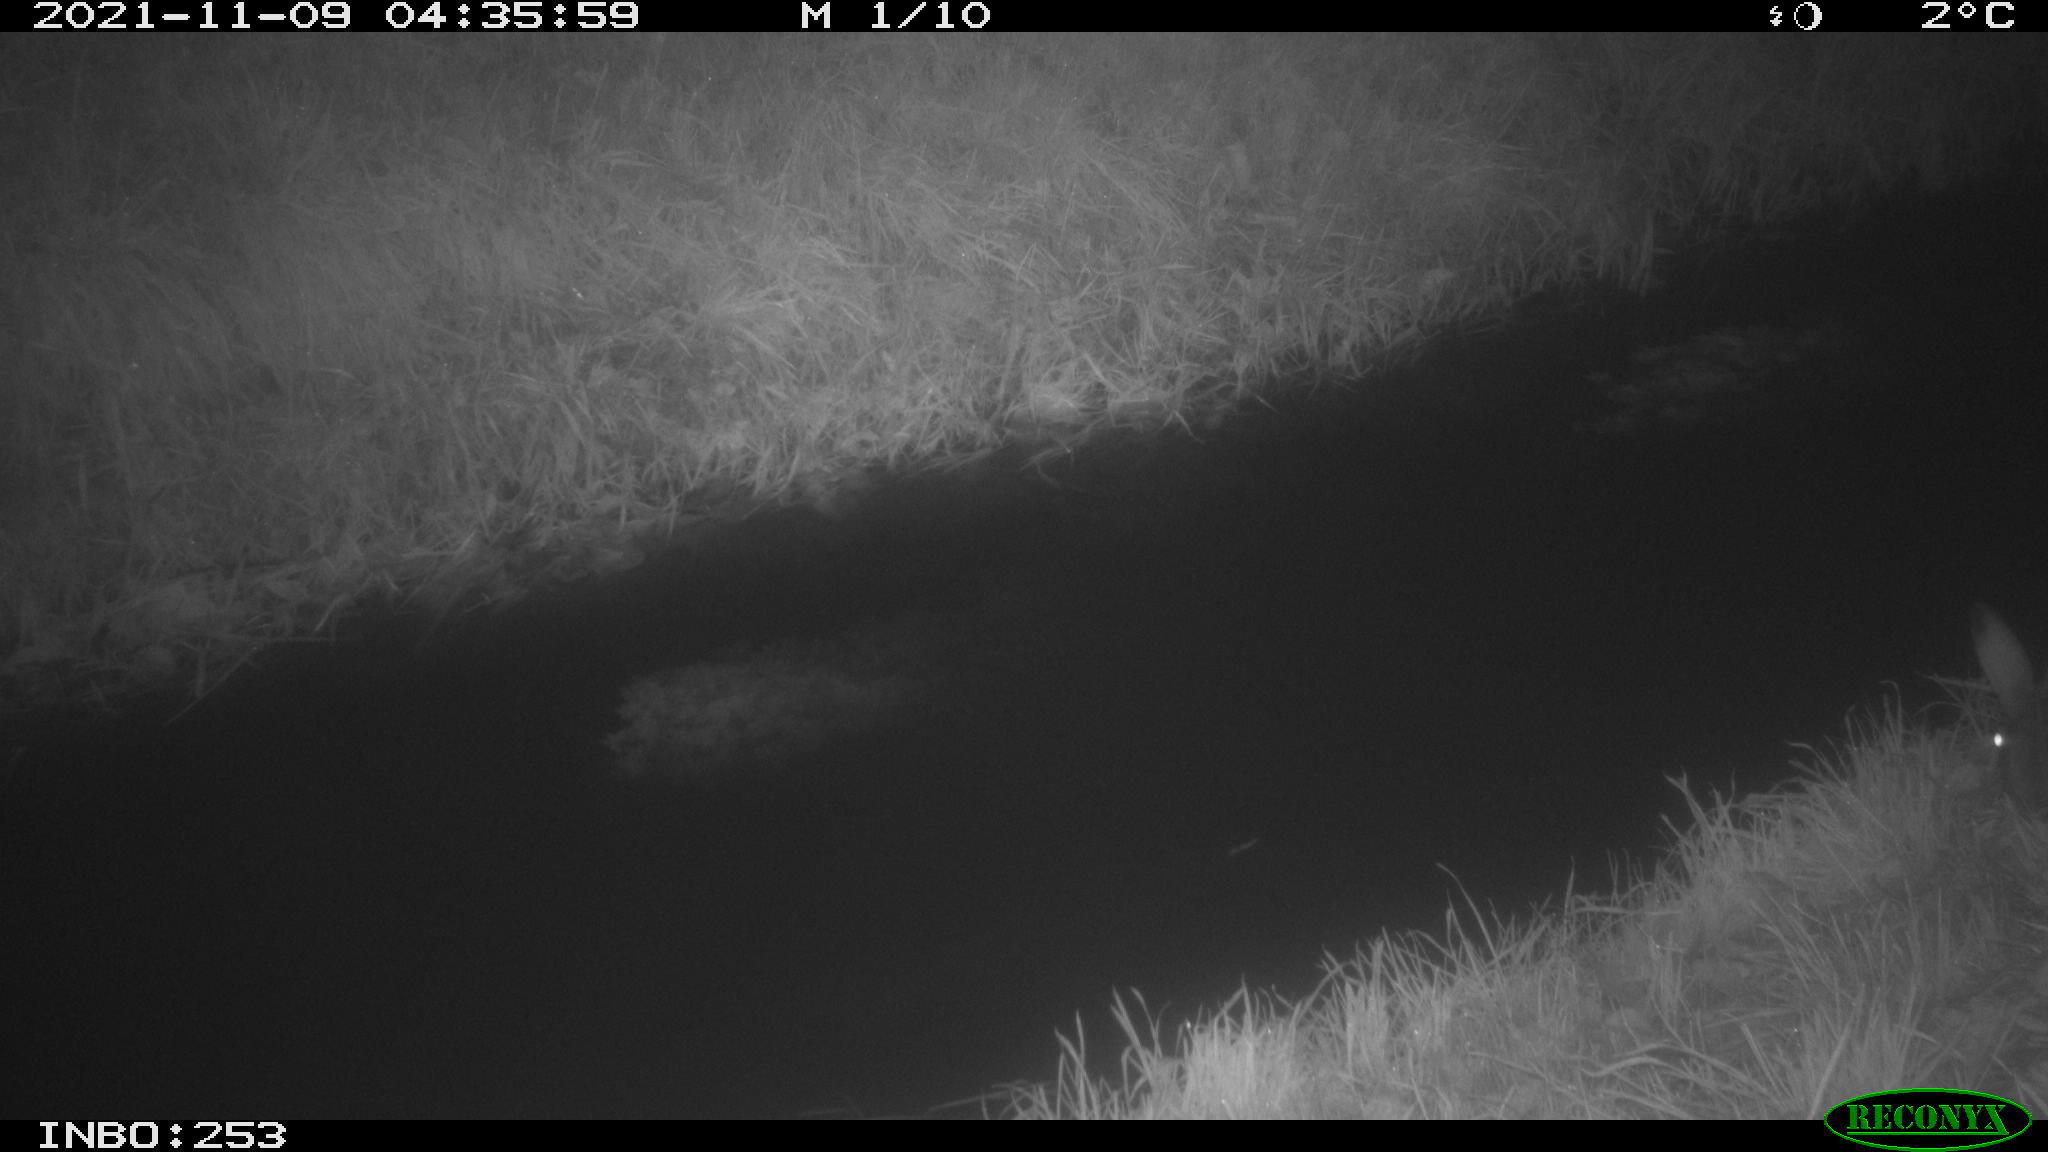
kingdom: Animalia
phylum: Chordata
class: Mammalia
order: Lagomorpha
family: Leporidae
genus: Lepus
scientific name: Lepus europaeus
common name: European hare
